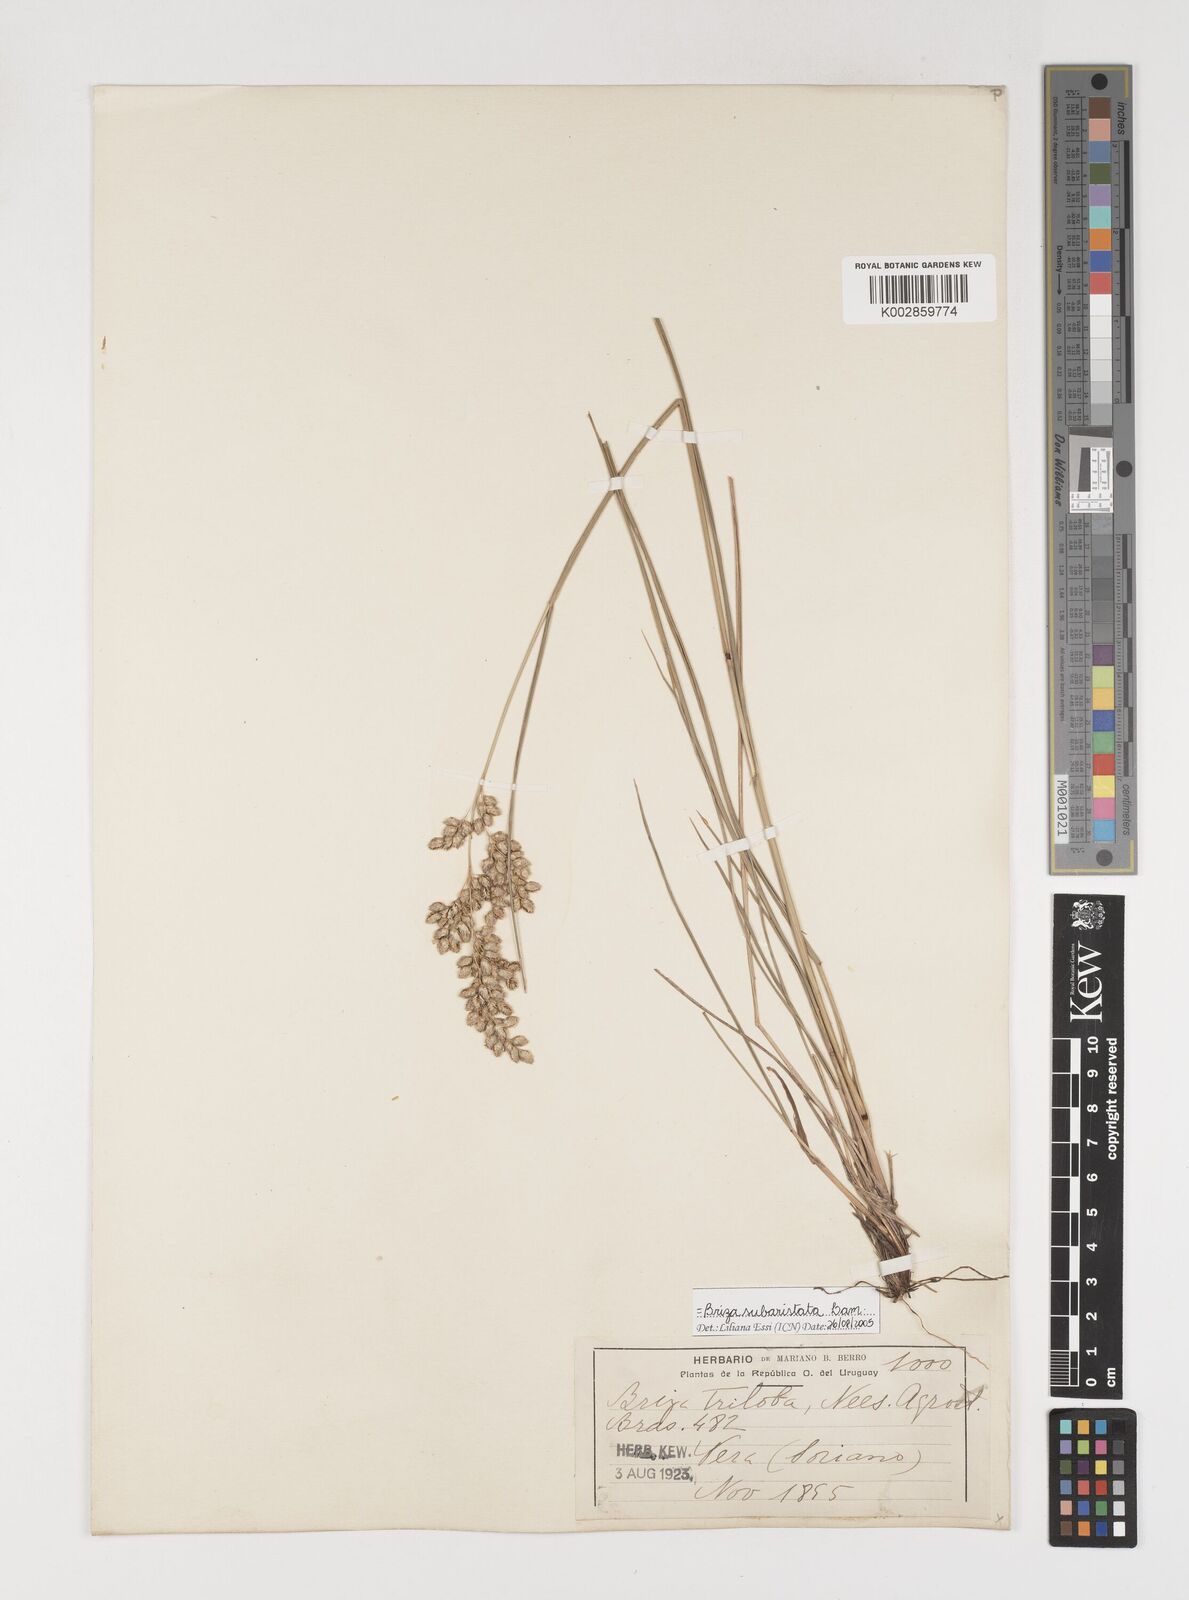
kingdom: Plantae
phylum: Tracheophyta
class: Liliopsida
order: Poales
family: Poaceae
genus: Chascolytrum
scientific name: Chascolytrum subaristatum
